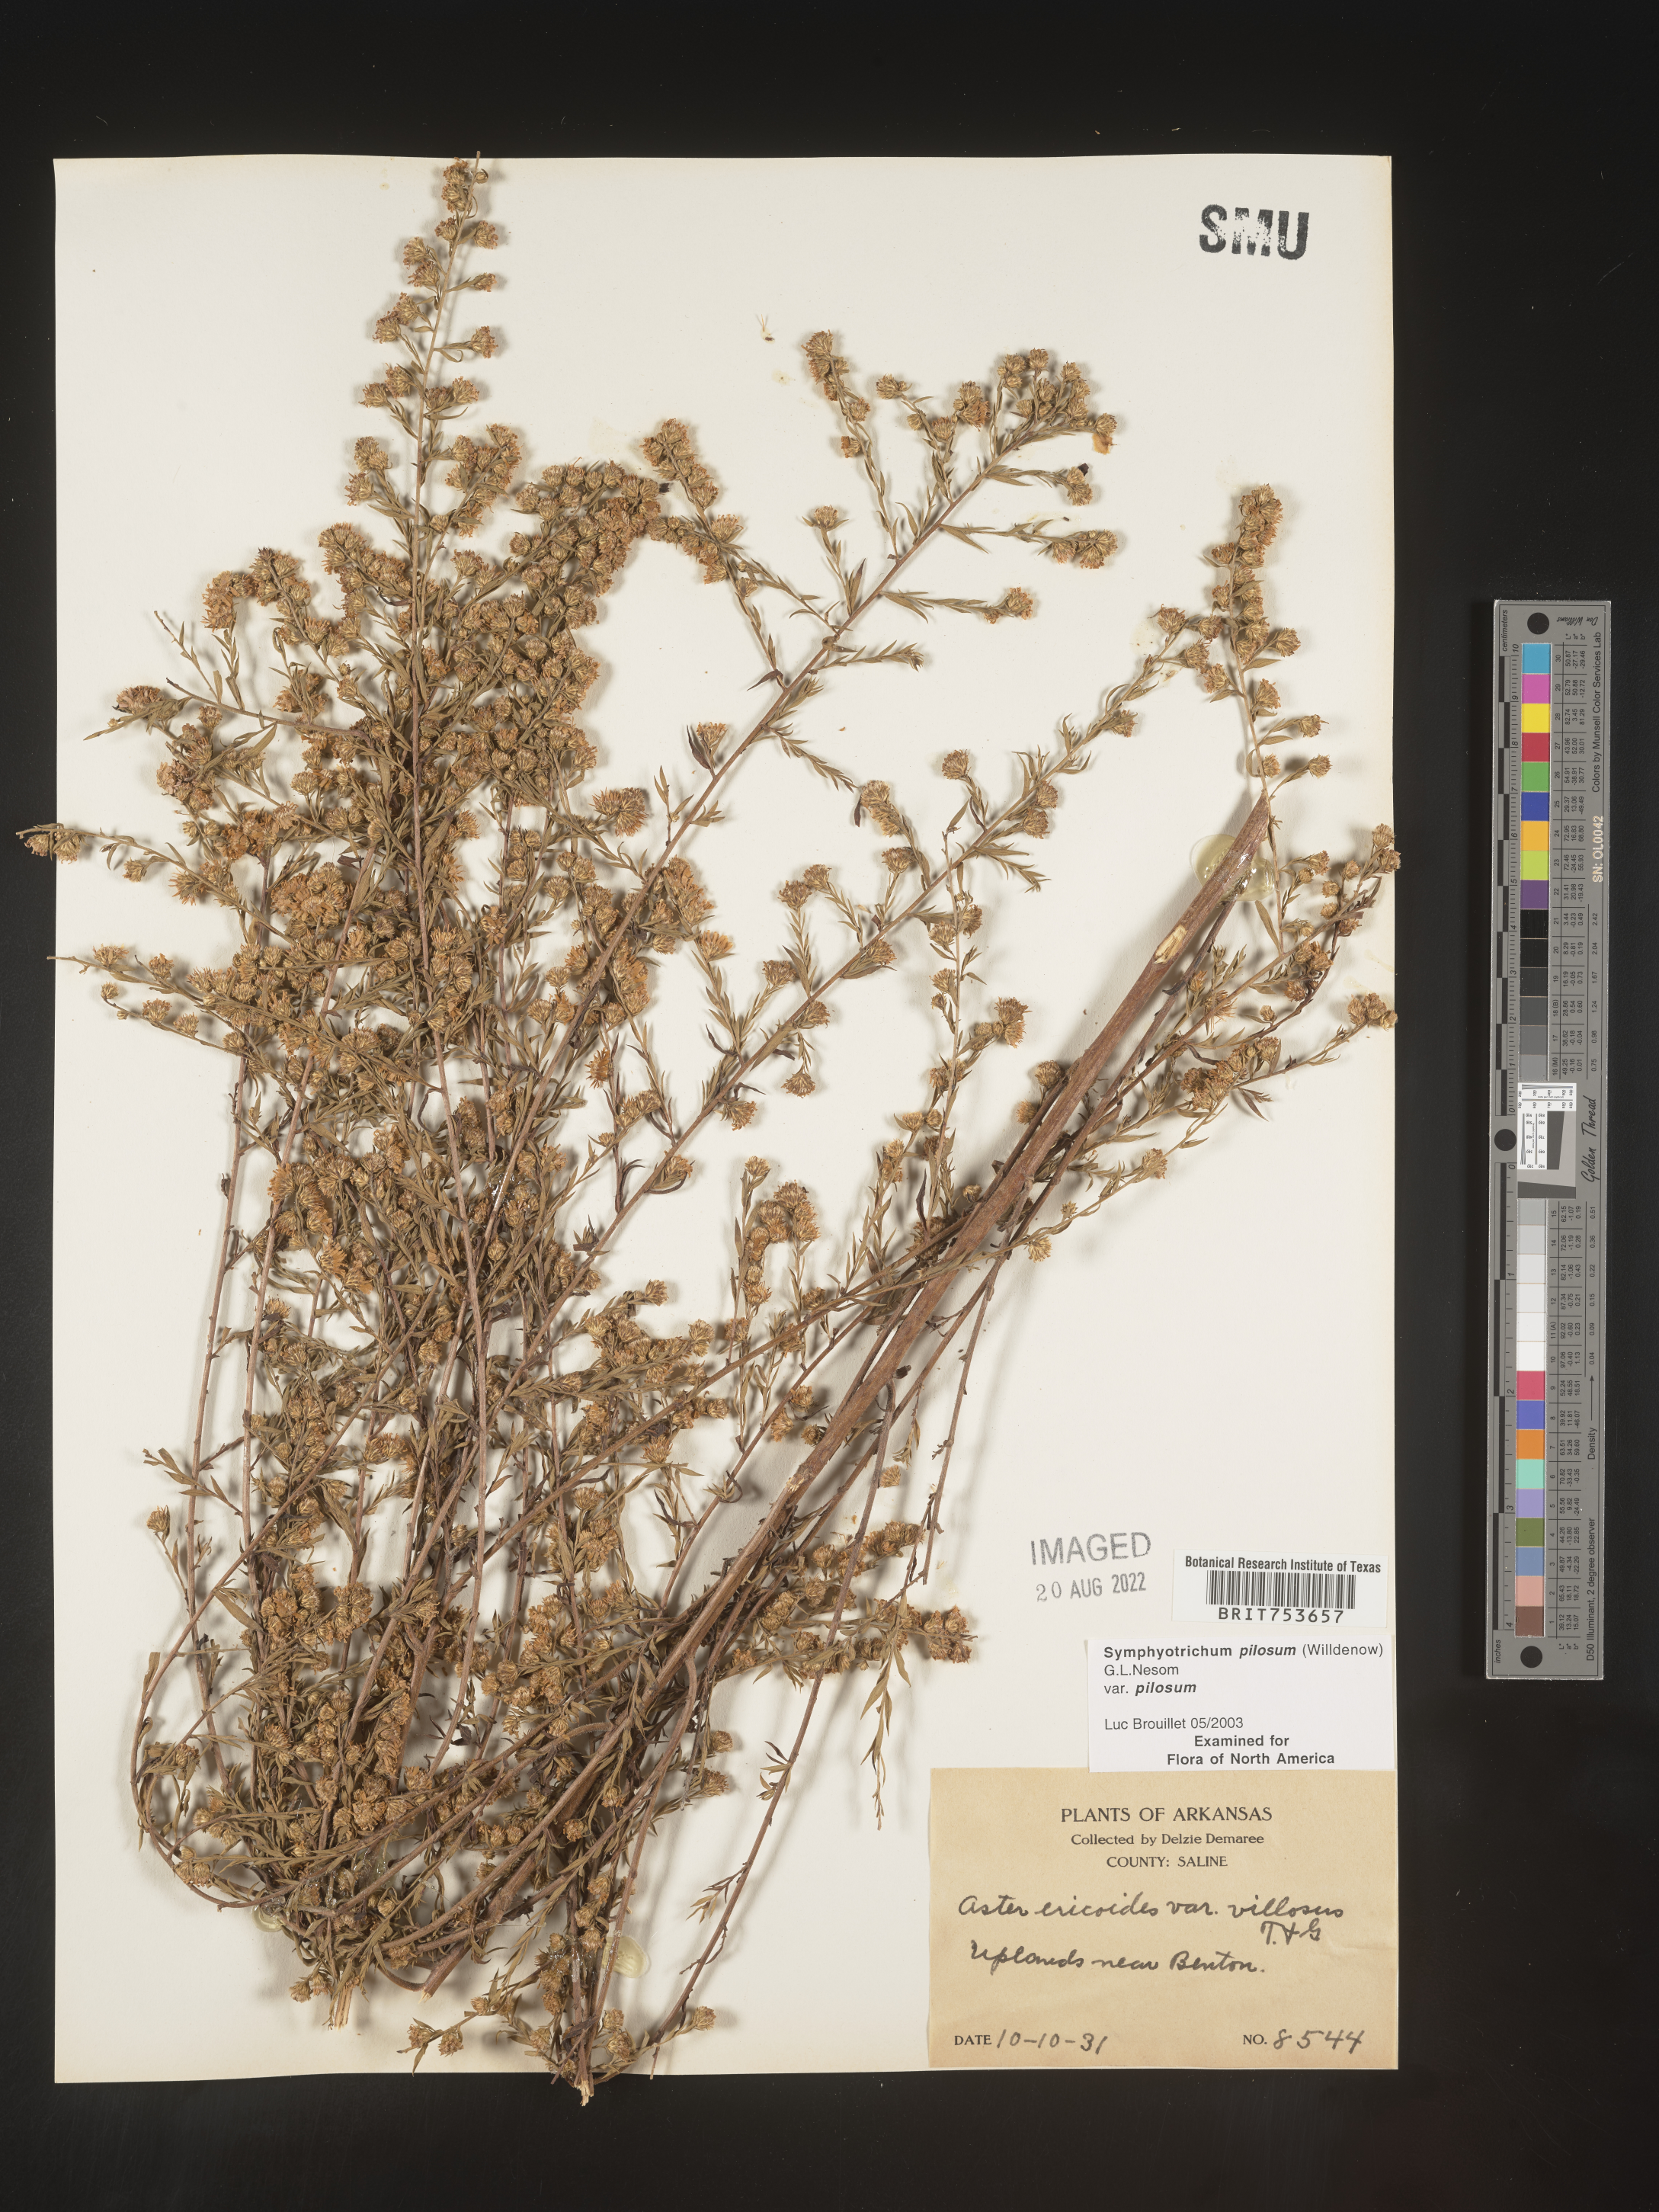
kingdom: Plantae
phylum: Tracheophyta
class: Magnoliopsida
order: Asterales
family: Asteraceae
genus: Symphyotrichum
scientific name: Symphyotrichum pilosum
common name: Awl aster
